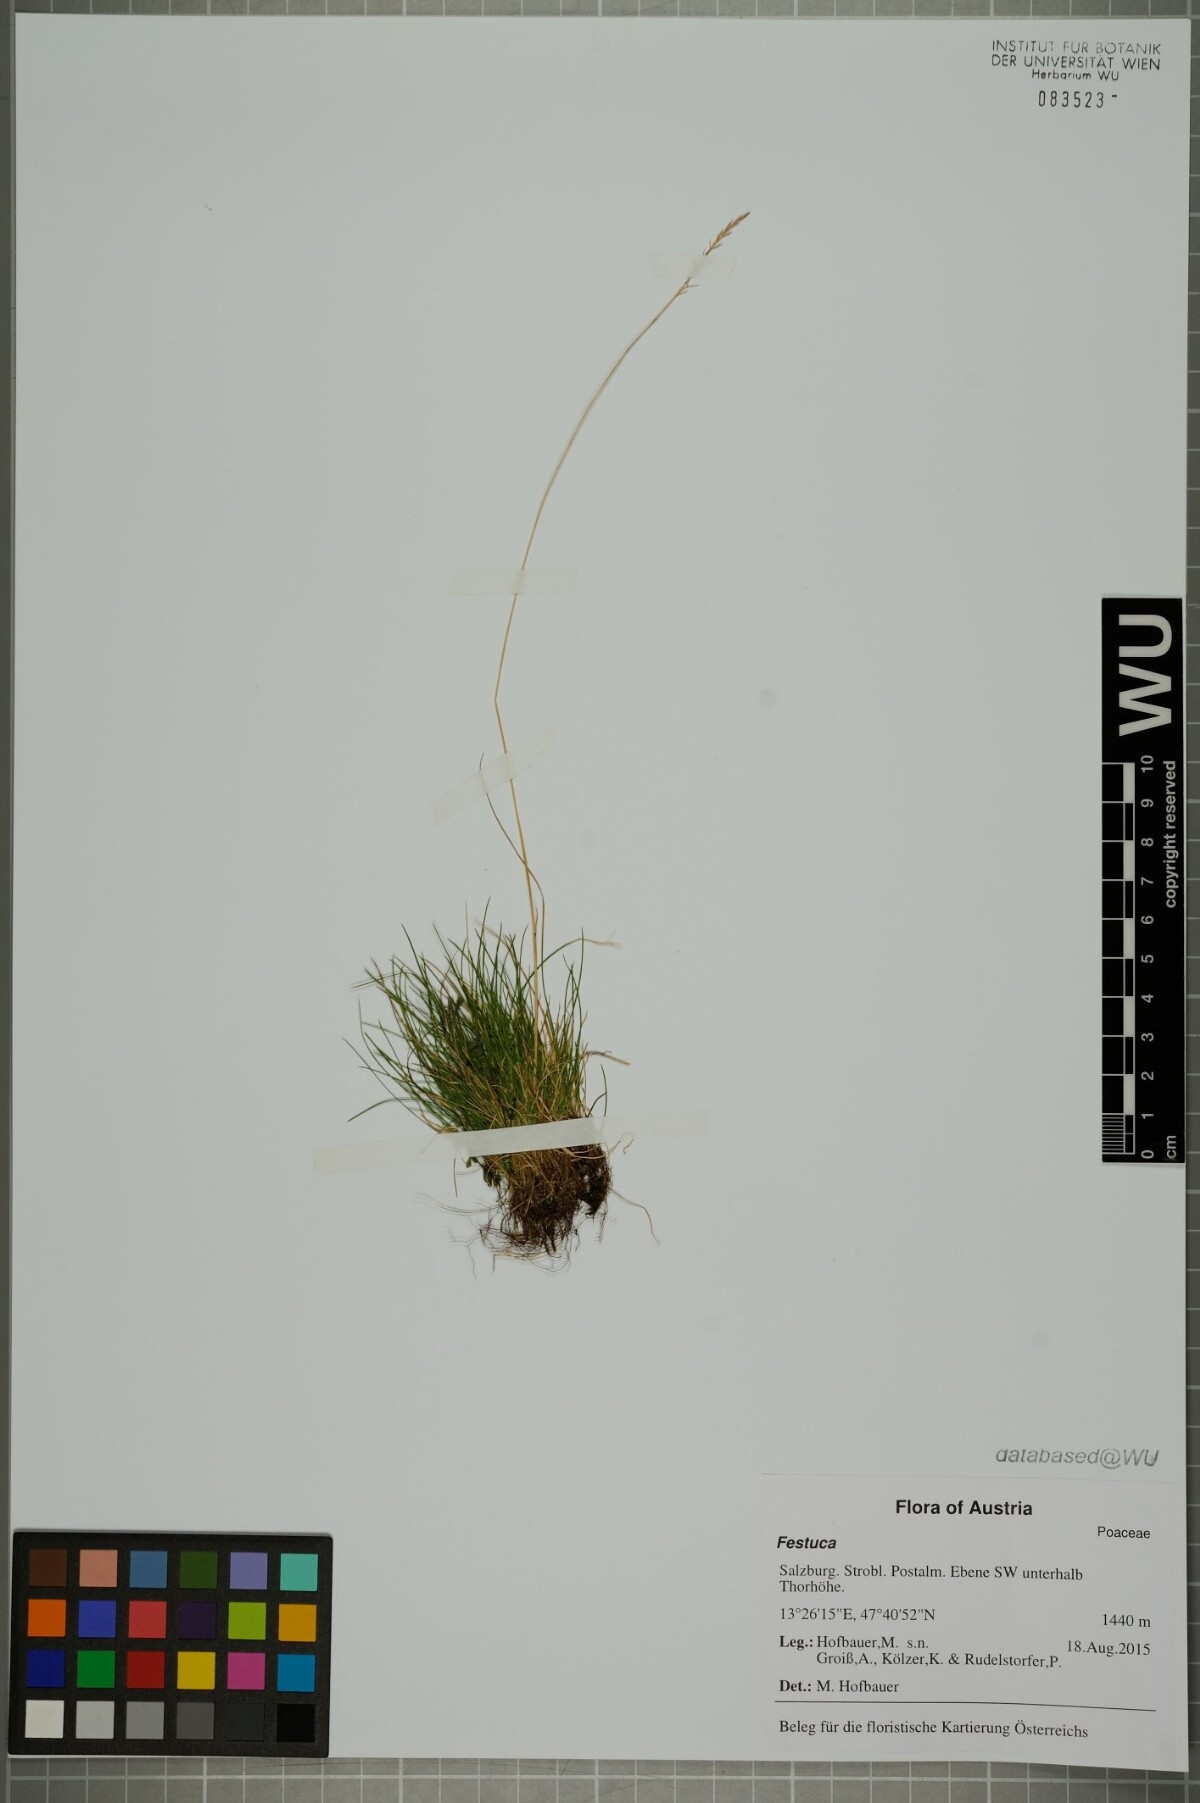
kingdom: Plantae
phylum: Tracheophyta
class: Liliopsida
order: Poales
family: Poaceae
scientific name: Poaceae
